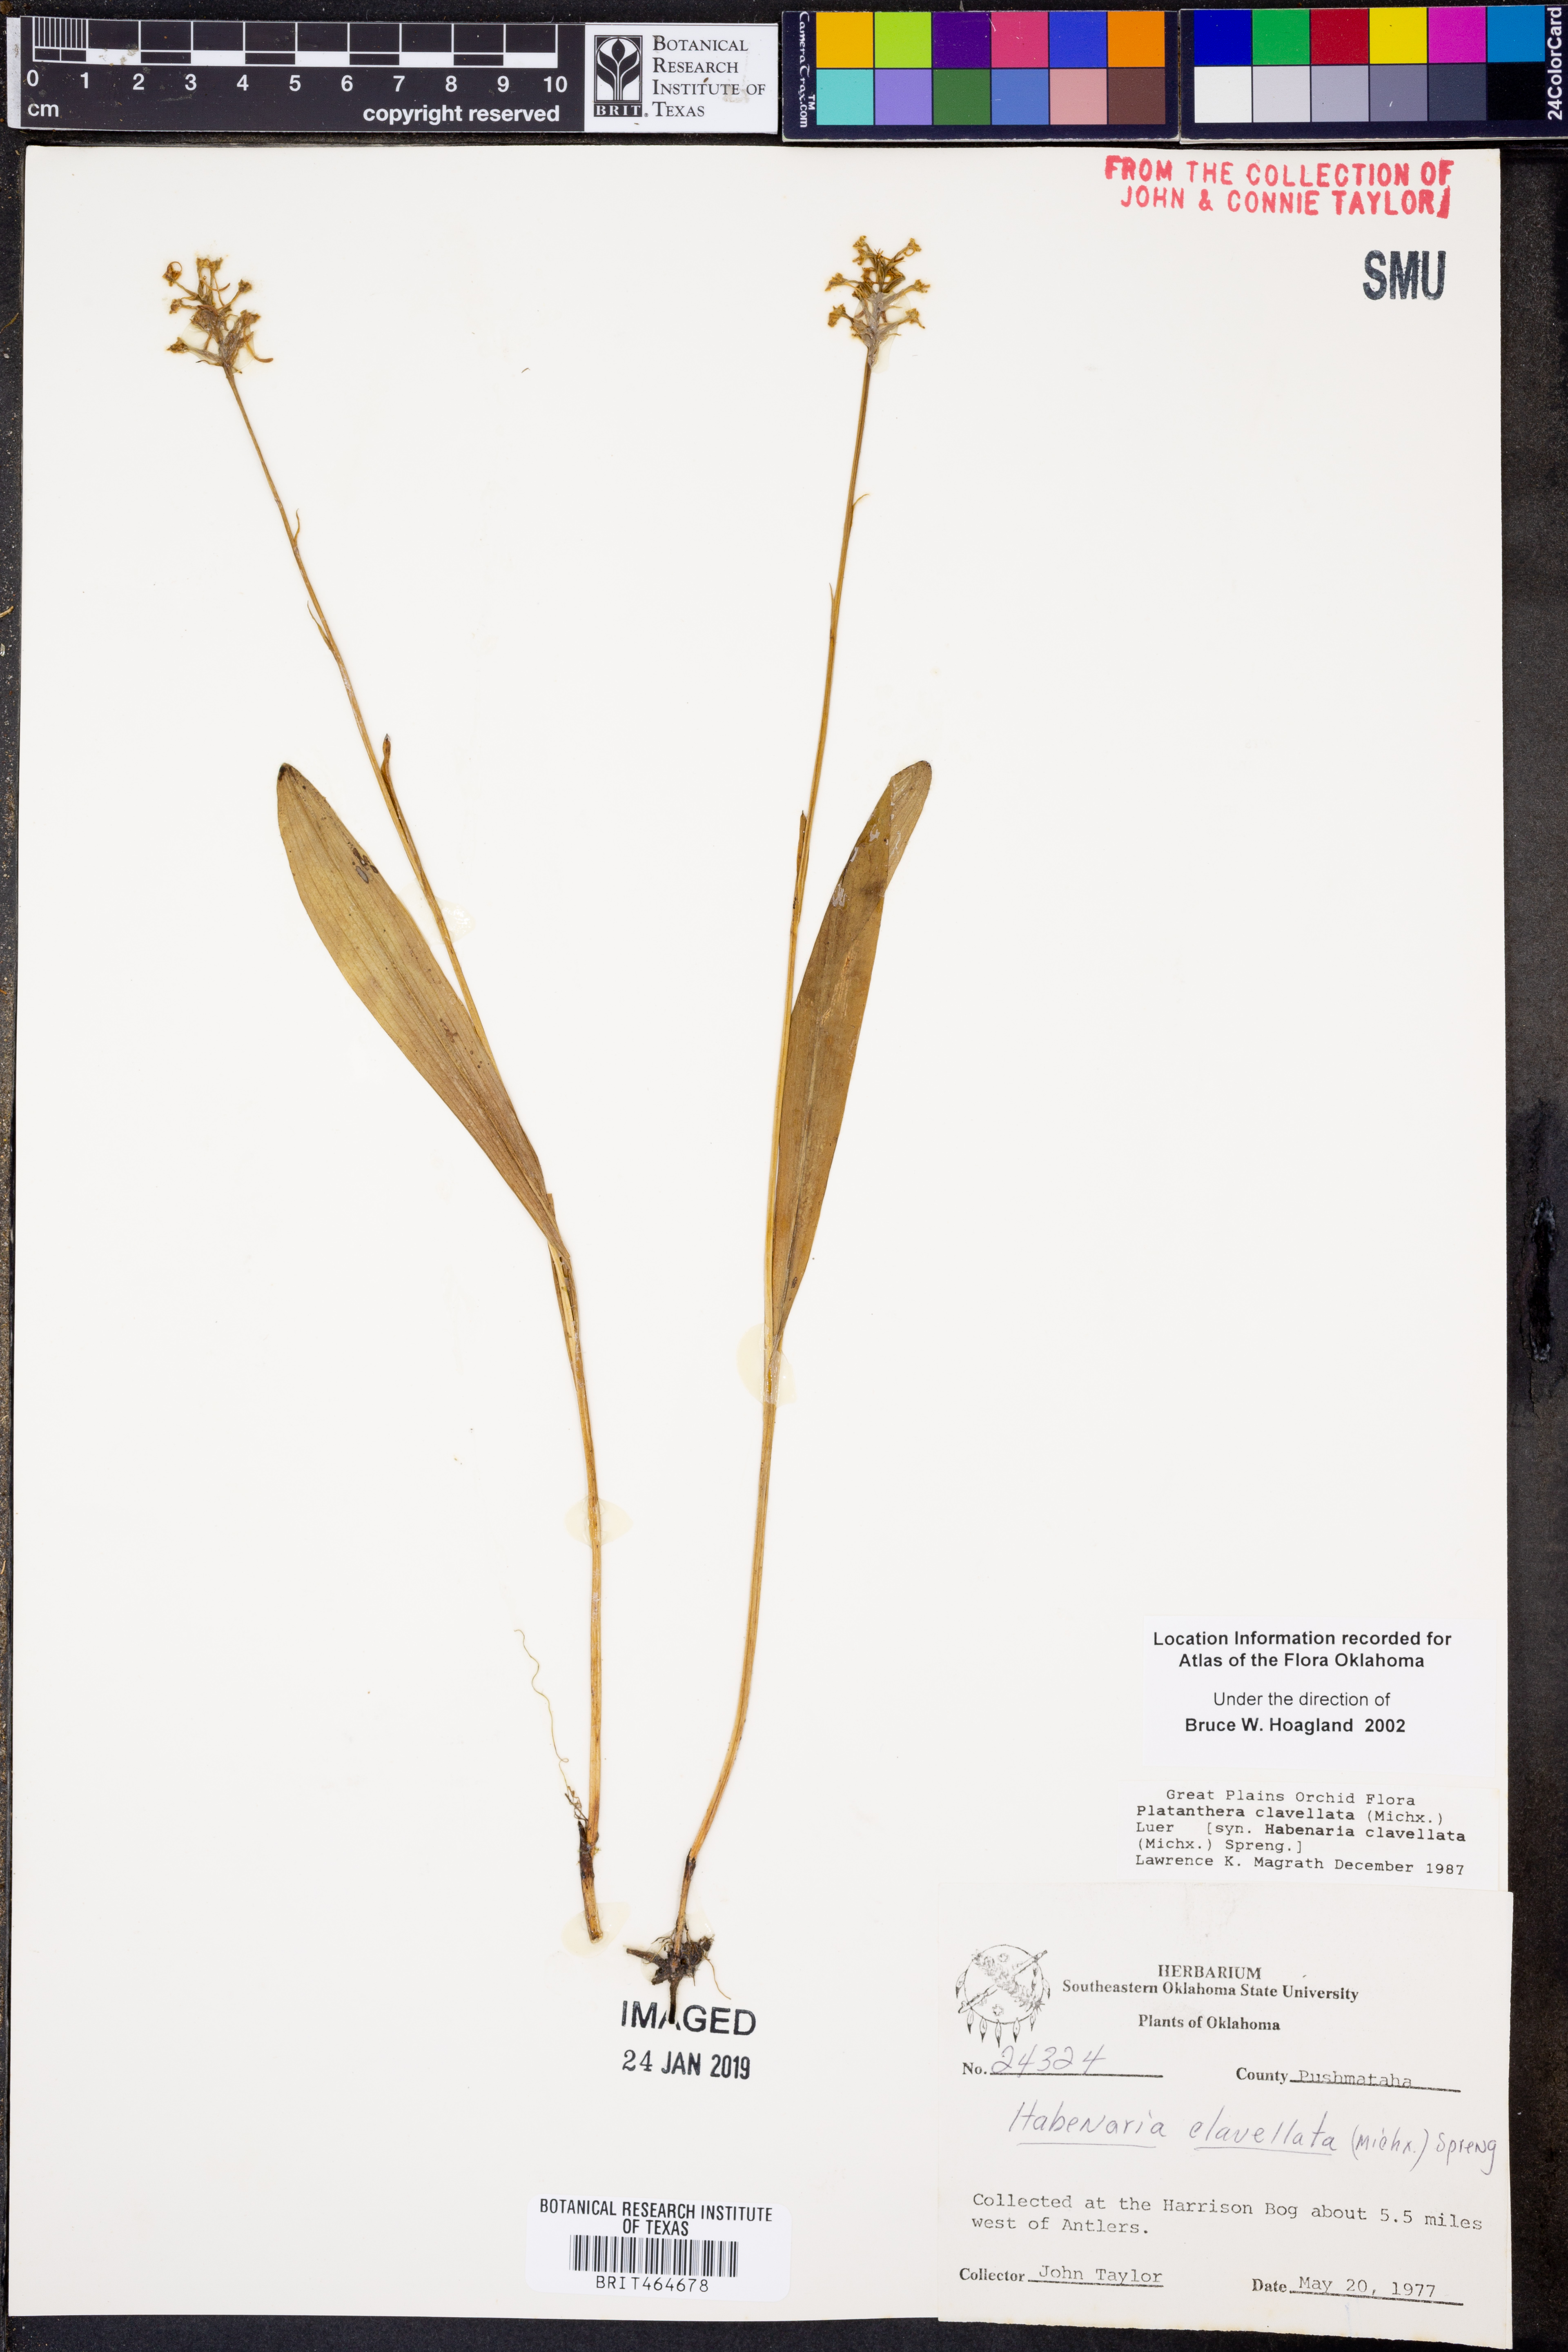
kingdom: Plantae
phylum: Tracheophyta
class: Liliopsida
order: Asparagales
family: Orchidaceae
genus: Platanthera
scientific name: Platanthera clavellata
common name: Club-spur orchid
